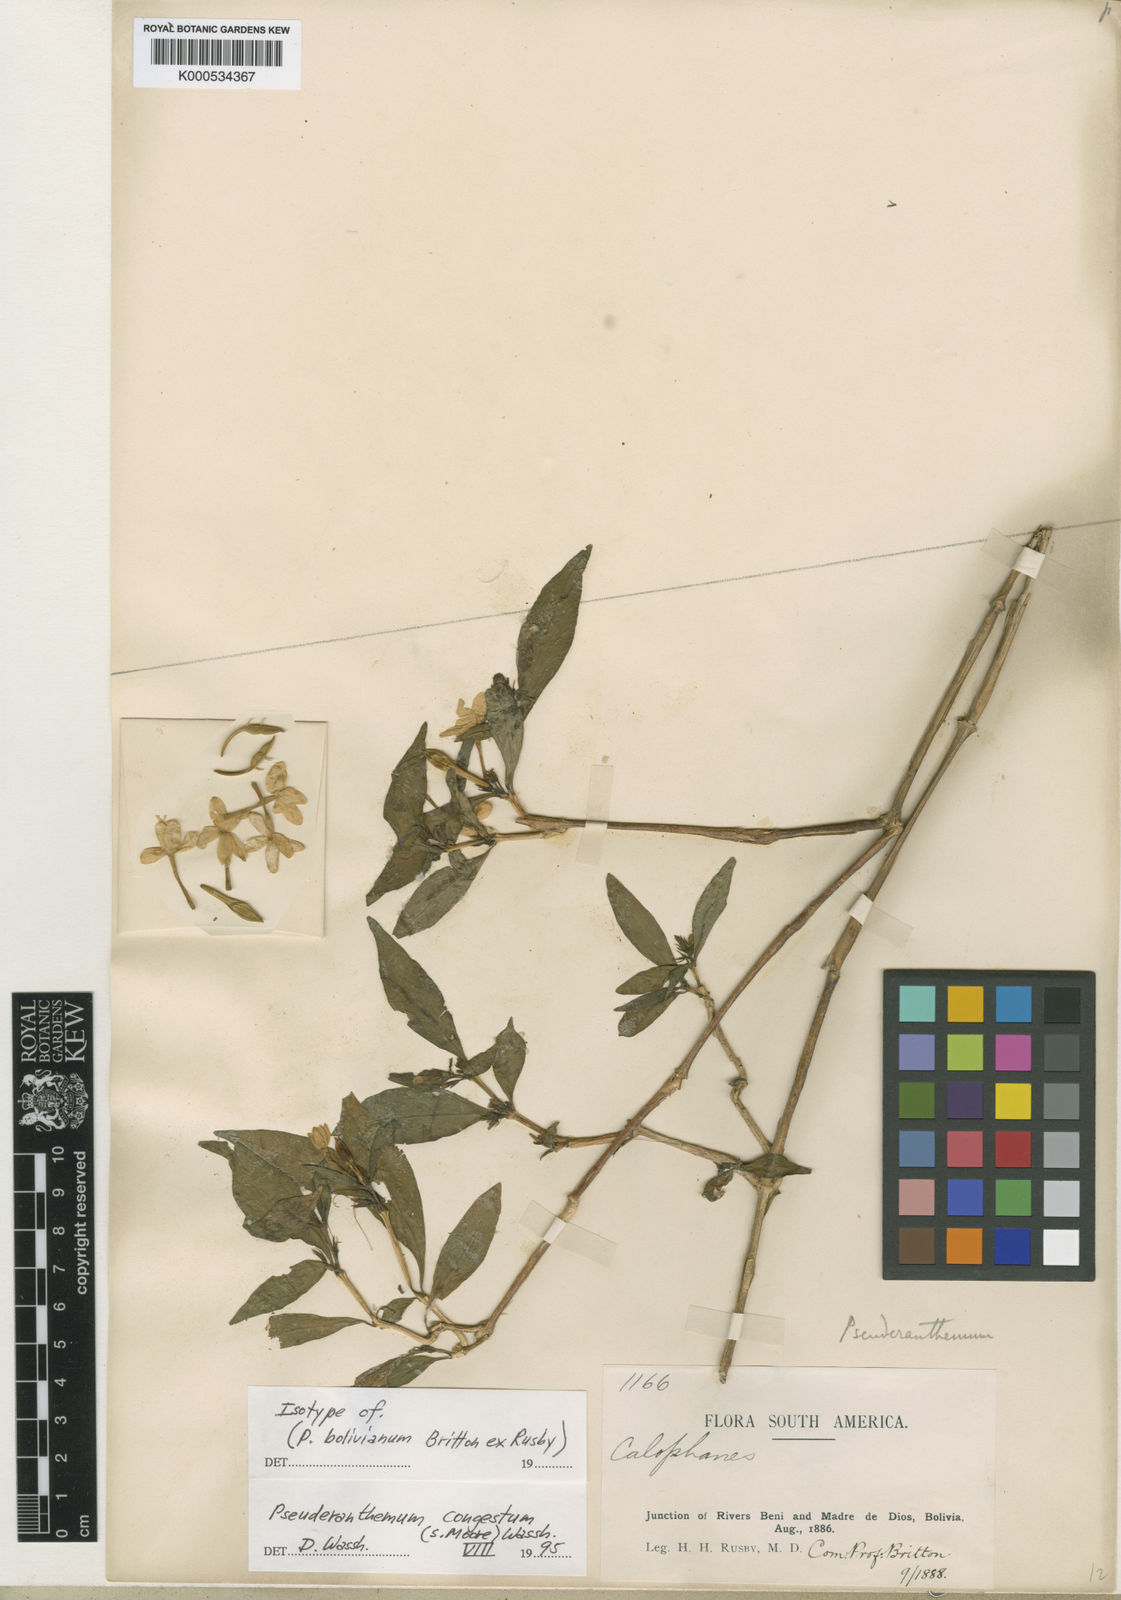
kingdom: Plantae
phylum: Tracheophyta
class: Magnoliopsida
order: Lamiales
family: Acanthaceae
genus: Pseuderanthemum
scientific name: Pseuderanthemum
